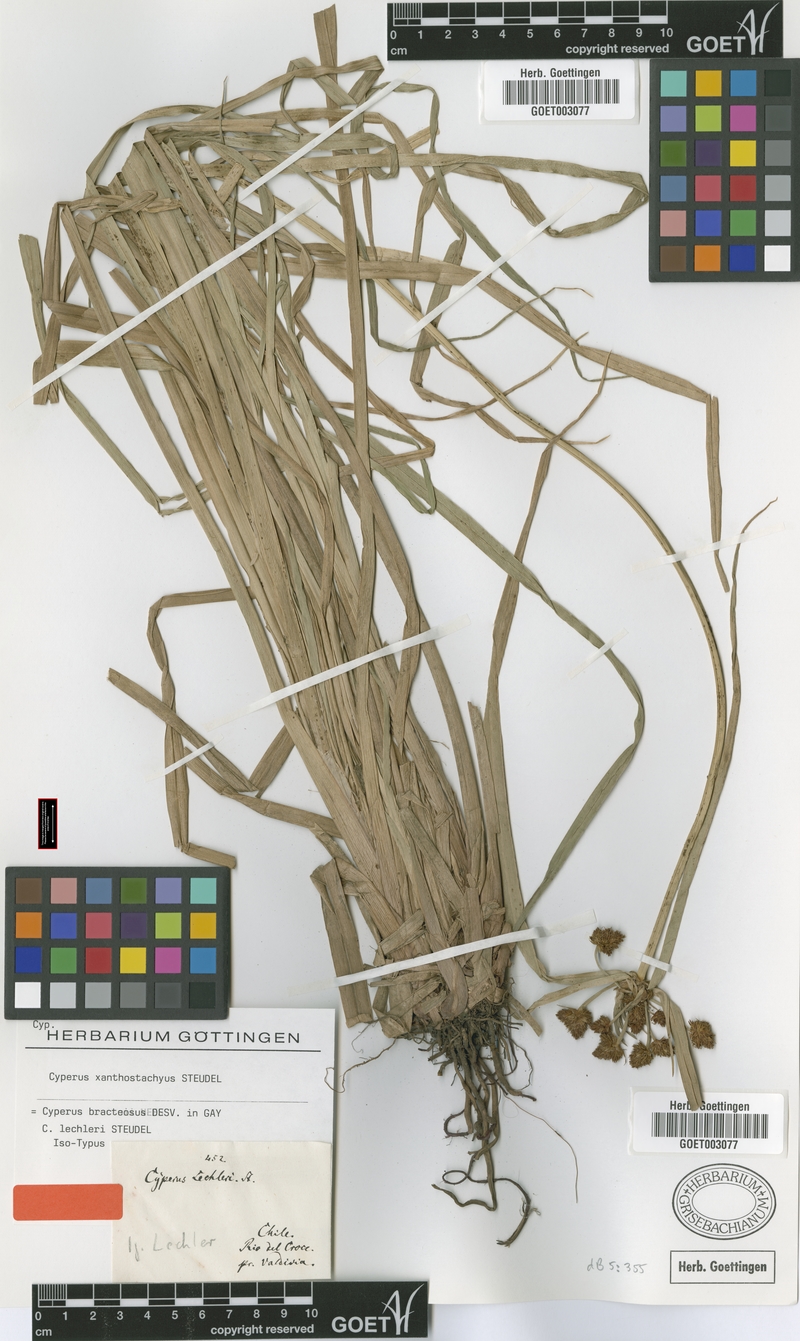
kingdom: Plantae
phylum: Tracheophyta
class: Liliopsida
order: Poales
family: Cyperaceae
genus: Cyperus
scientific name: Cyperus xanthostachyus
